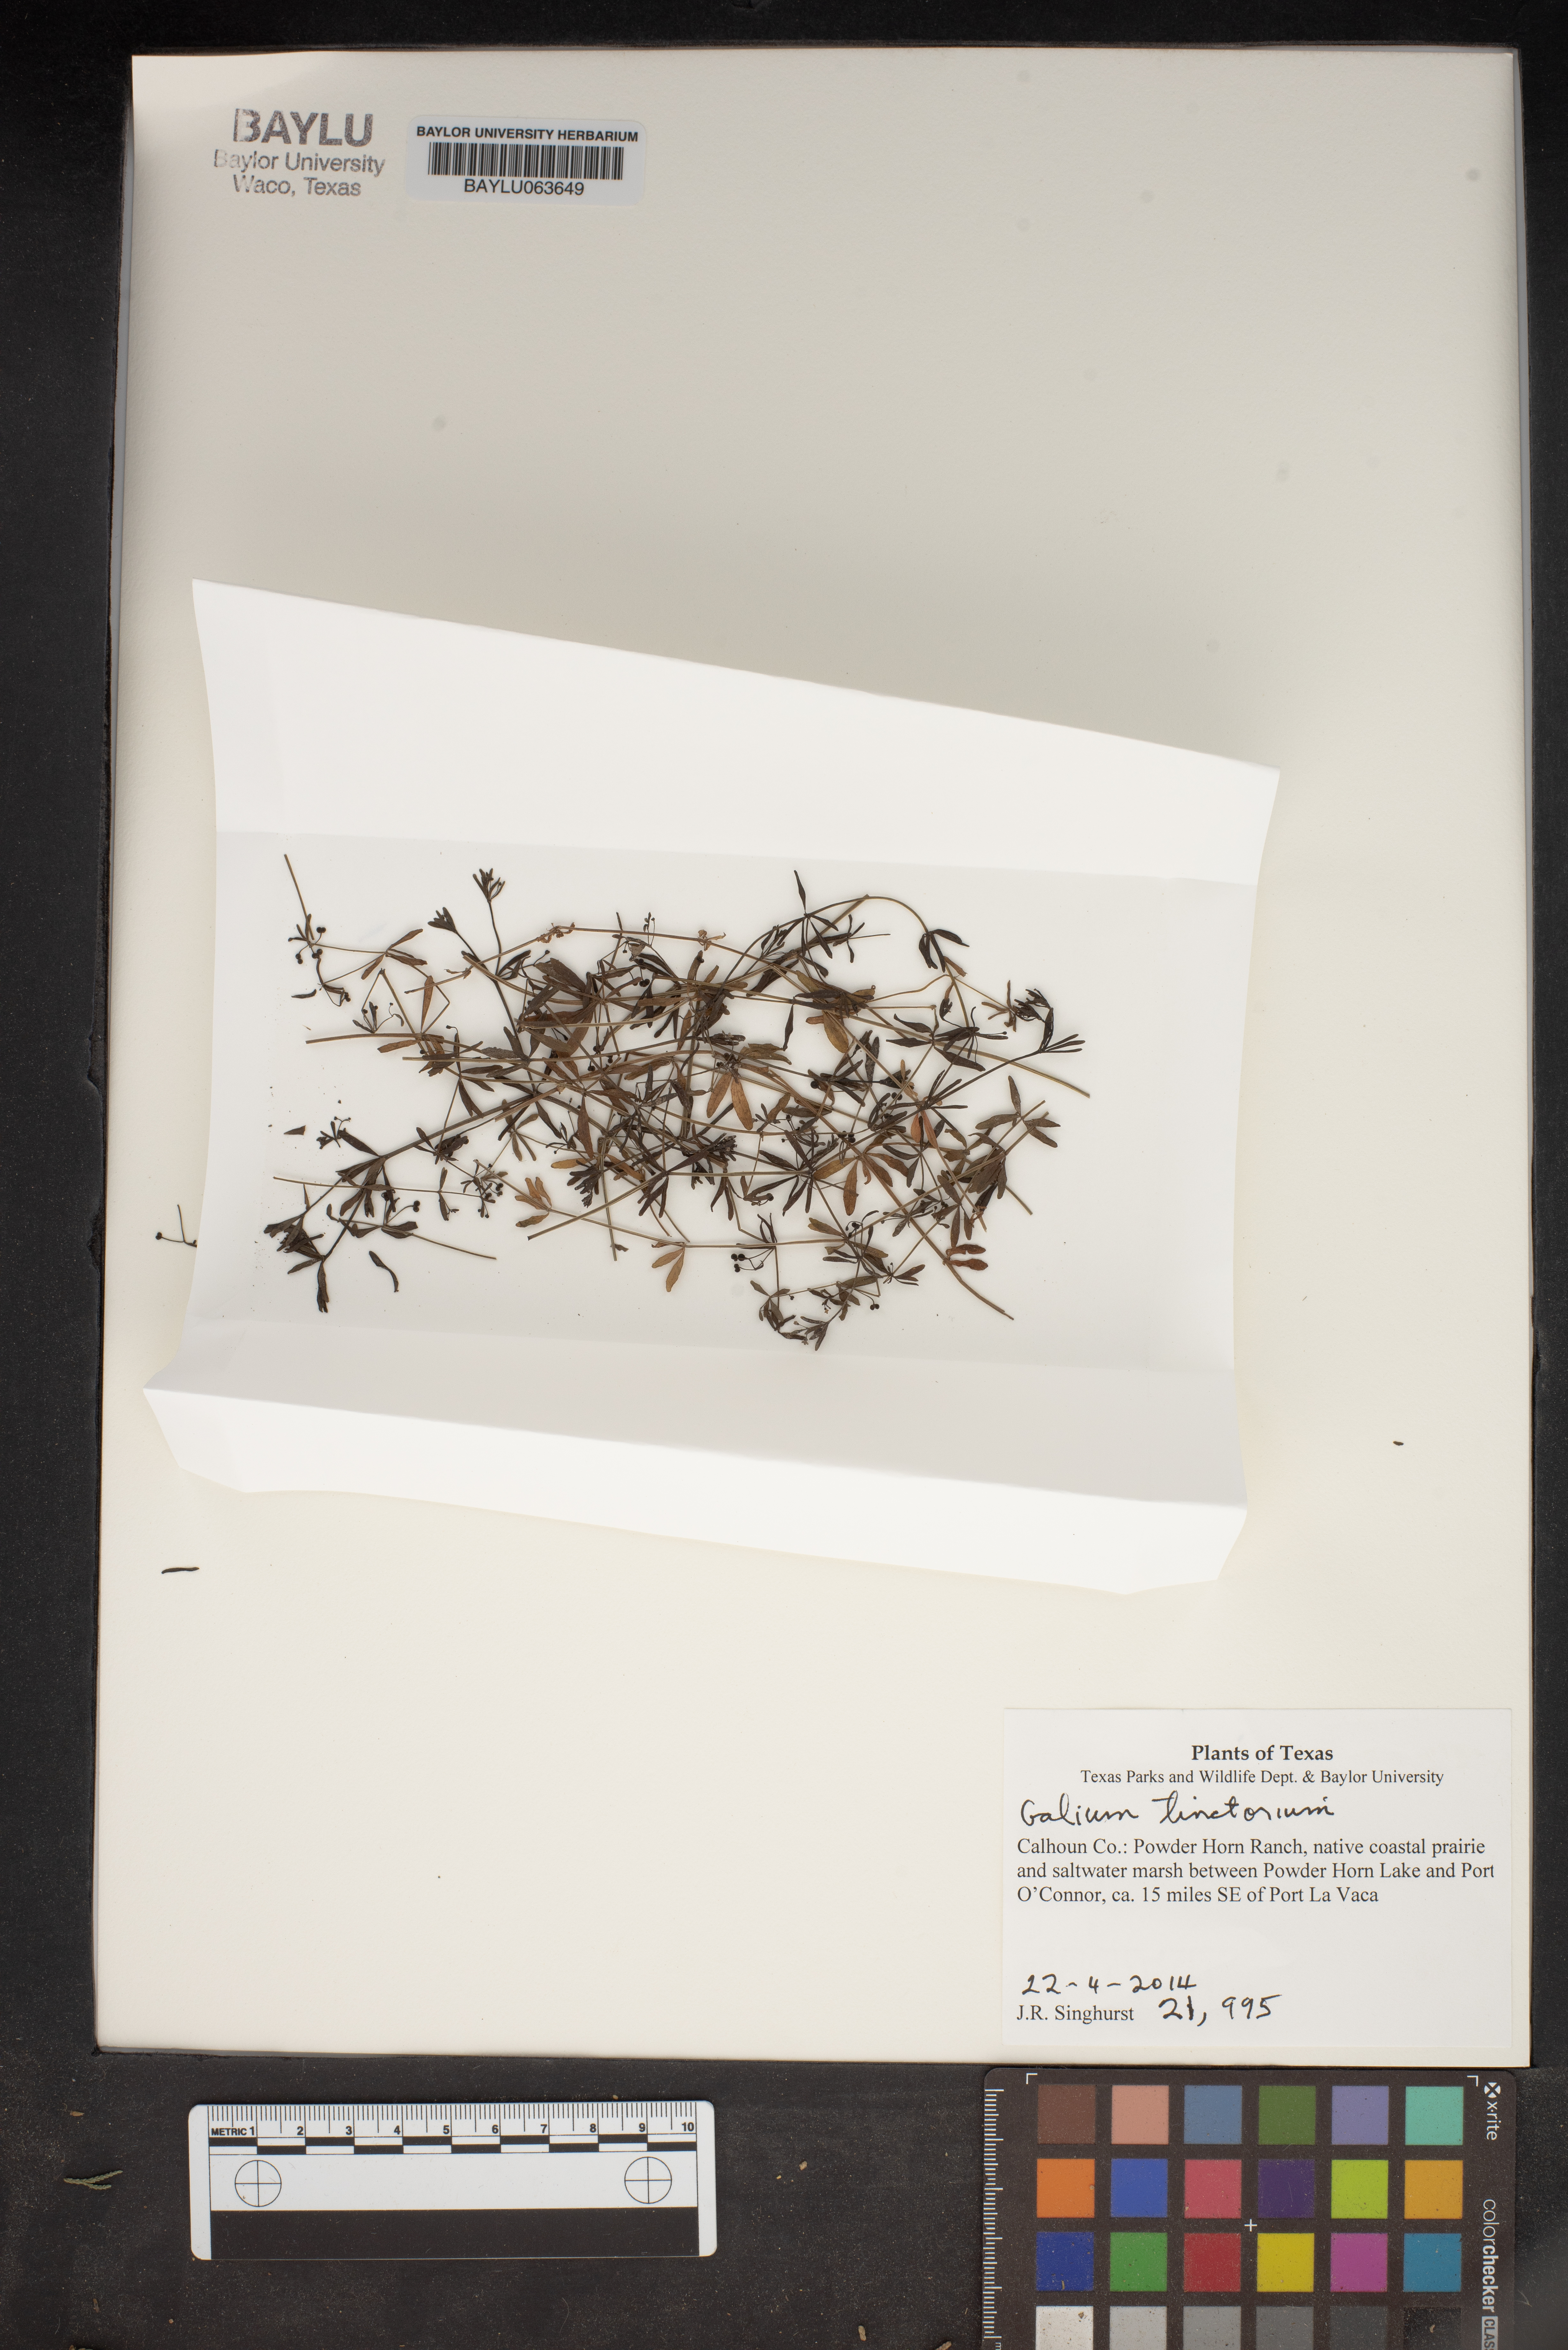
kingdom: Plantae
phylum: Tracheophyta
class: Magnoliopsida
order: Gentianales
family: Rubiaceae
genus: Asperula
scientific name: Asperula tinctoria
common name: Dyer's woodruff
